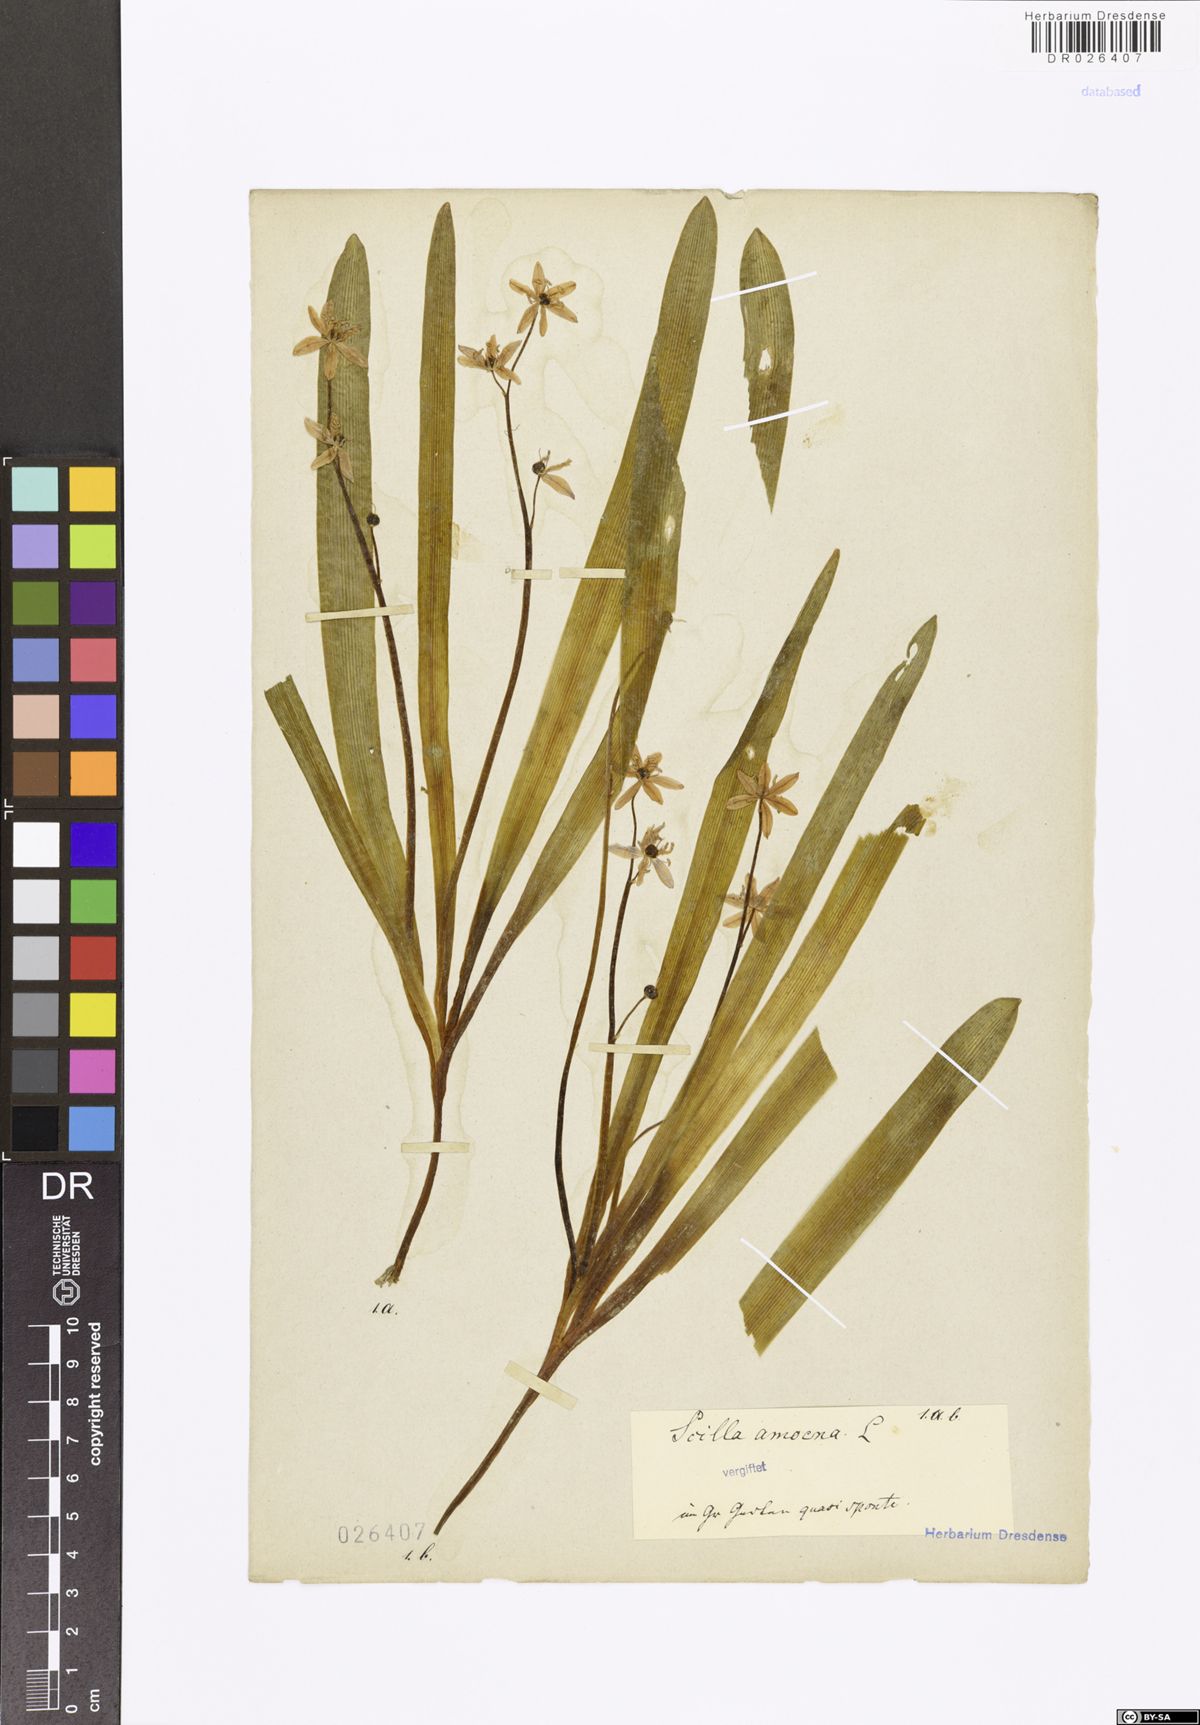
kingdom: Plantae
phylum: Tracheophyta
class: Liliopsida
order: Asparagales
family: Asparagaceae
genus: Scilla
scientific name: Scilla amoena
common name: Star-hyacinth
